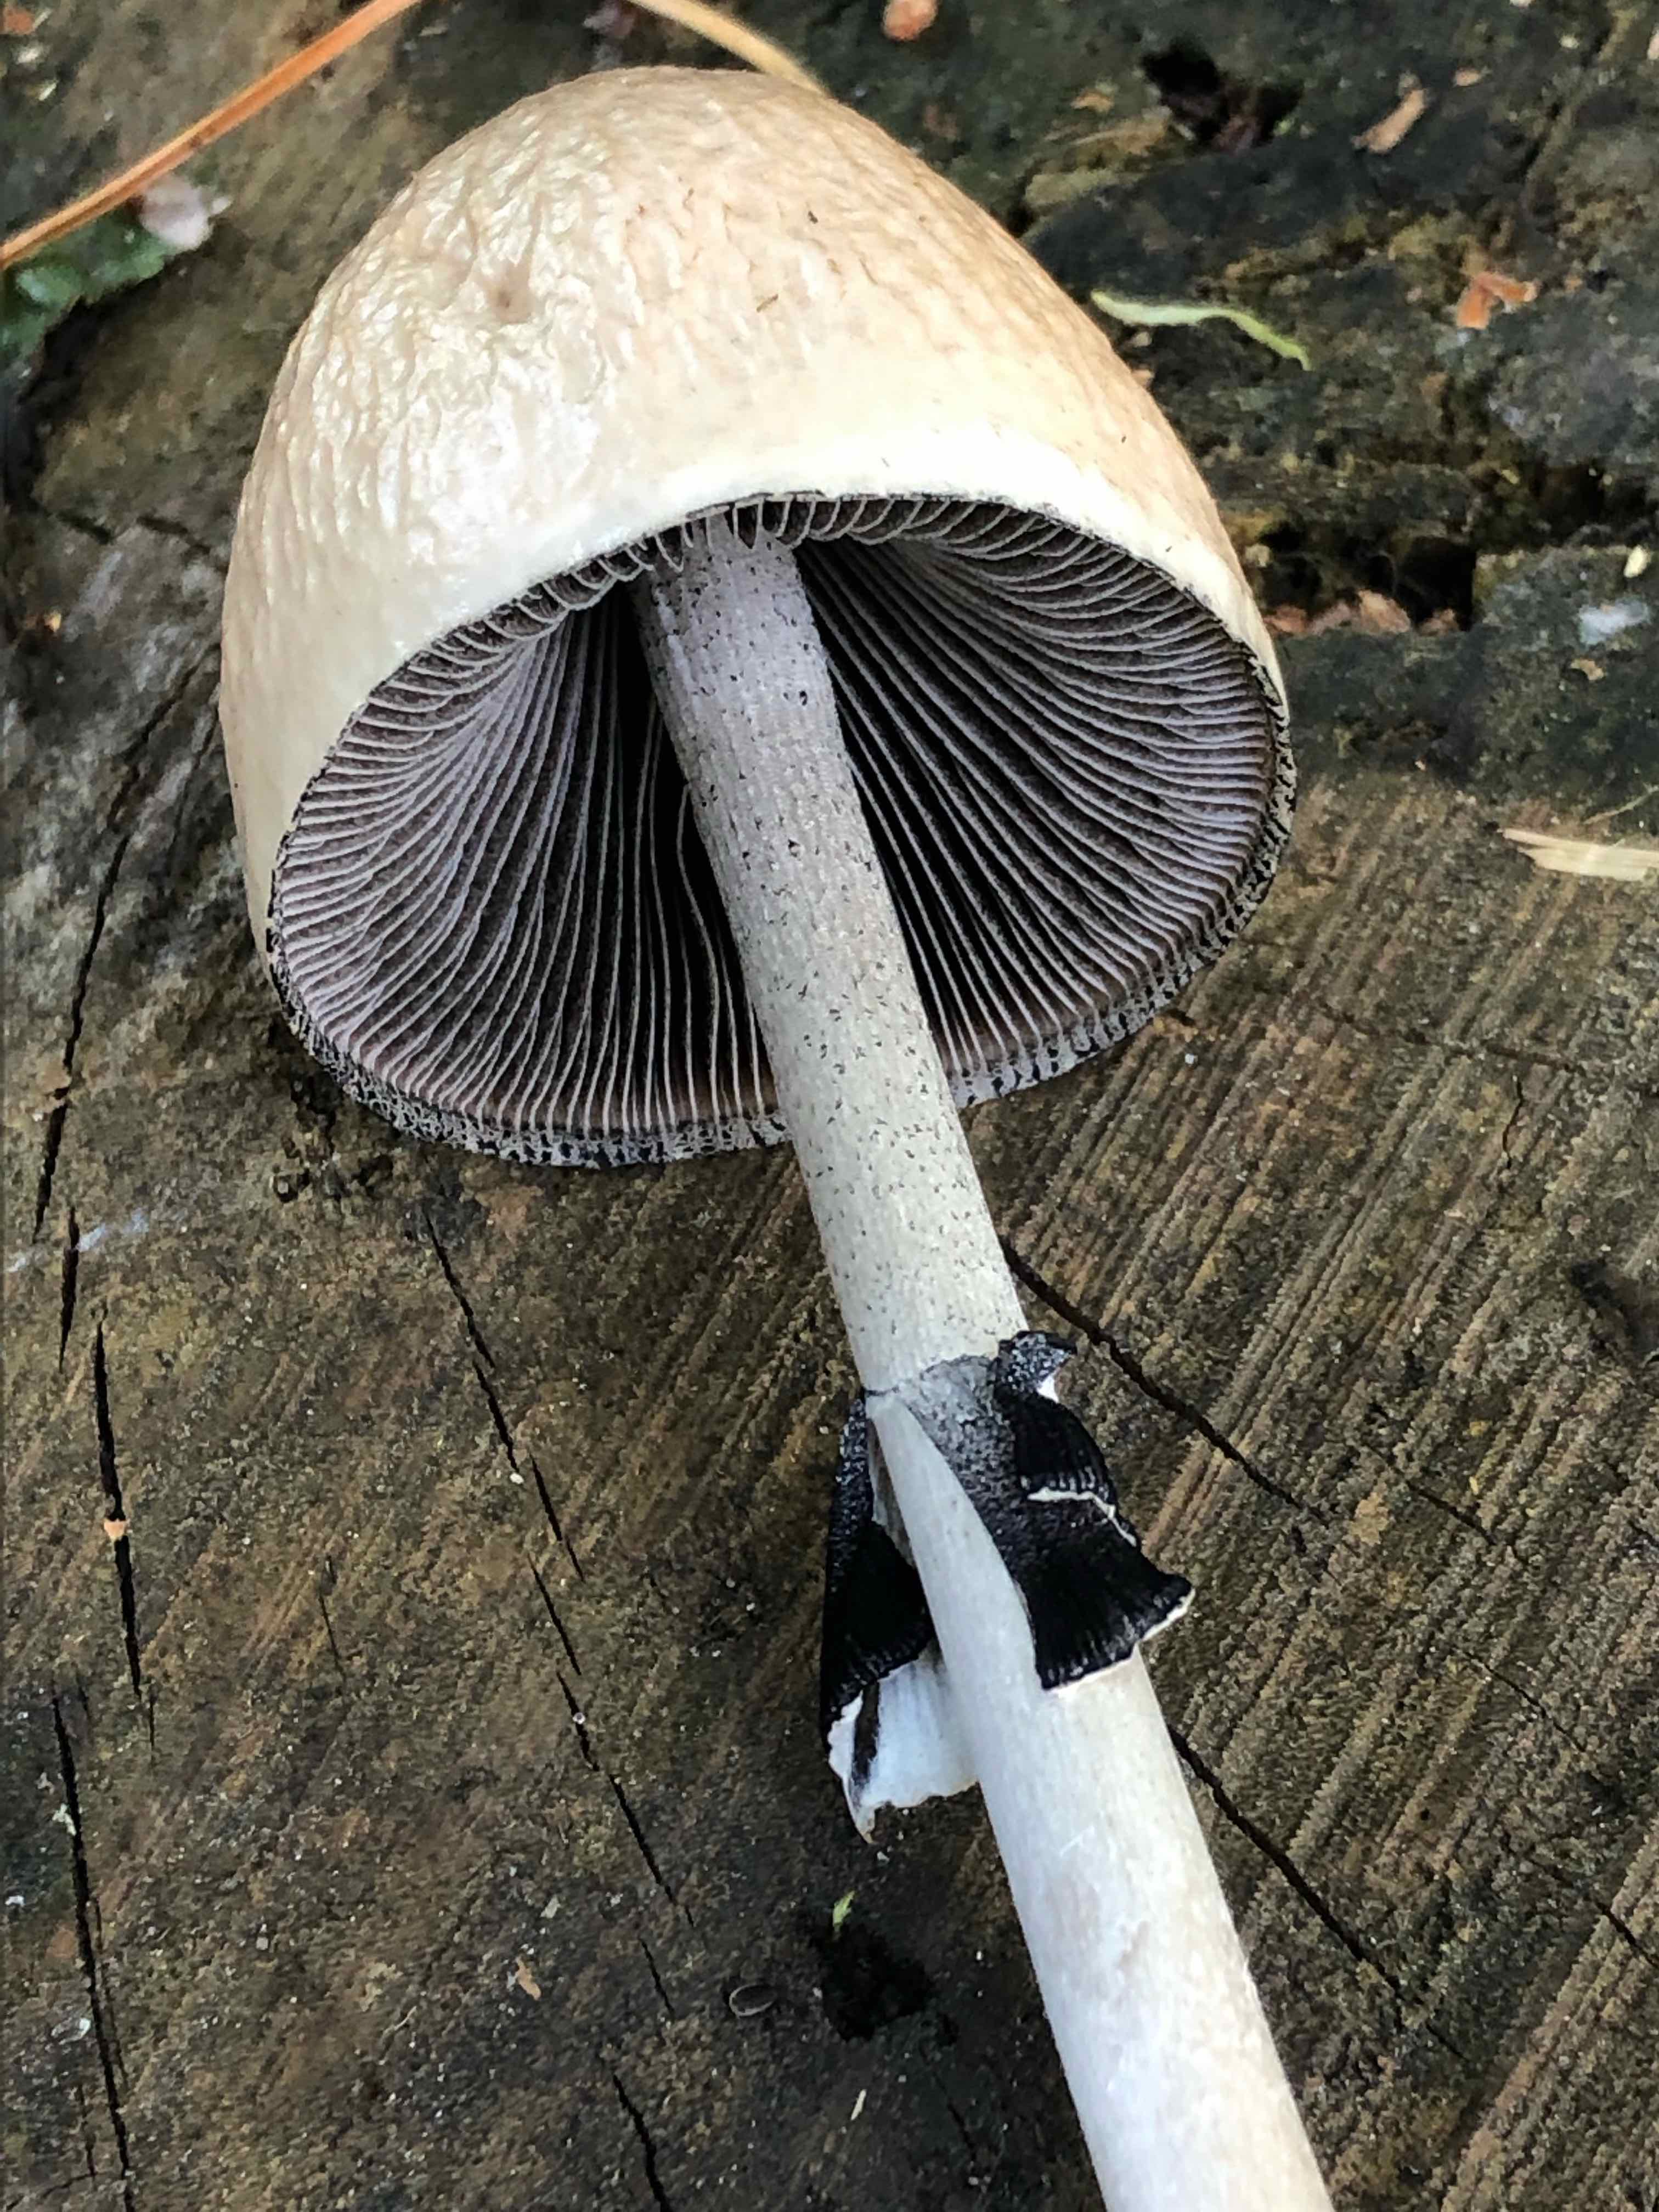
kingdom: Fungi
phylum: Basidiomycota
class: Agaricomycetes
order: Agaricales
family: Bolbitiaceae
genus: Panaeolus
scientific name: Panaeolus semiovatus
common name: ring-glanshat
